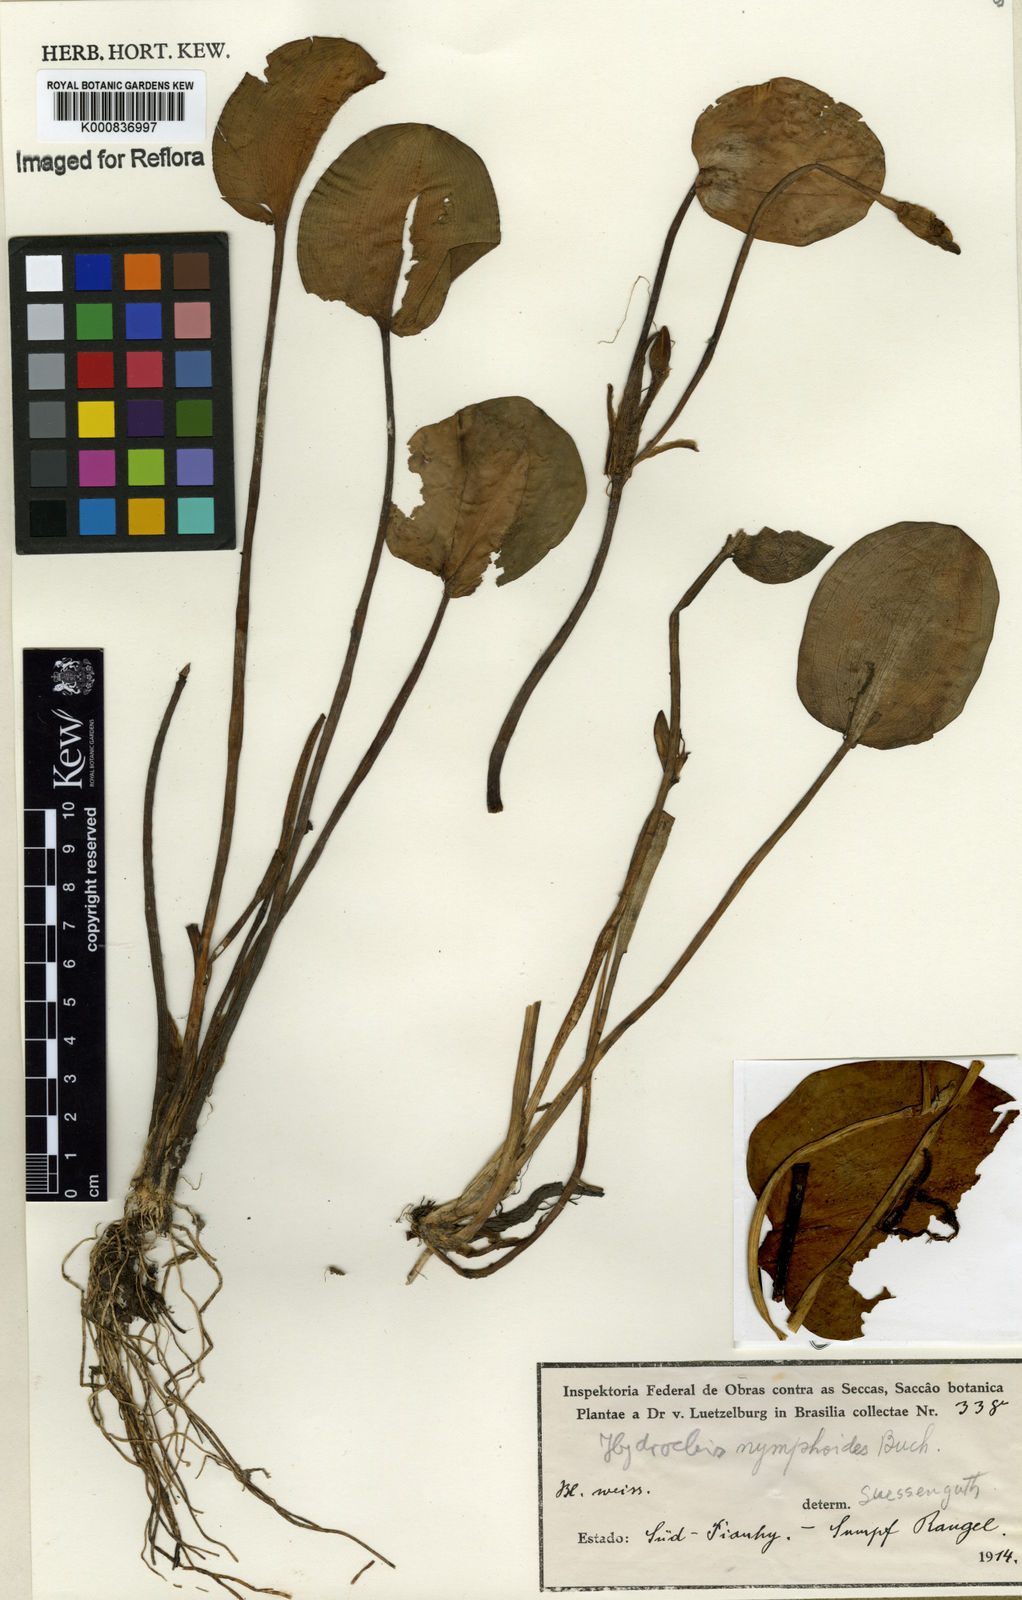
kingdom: Plantae
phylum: Tracheophyta
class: Liliopsida
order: Alismatales
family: Alismataceae
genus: Hydrocleys
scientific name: Hydrocleys nymphoides
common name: Water-poppy
